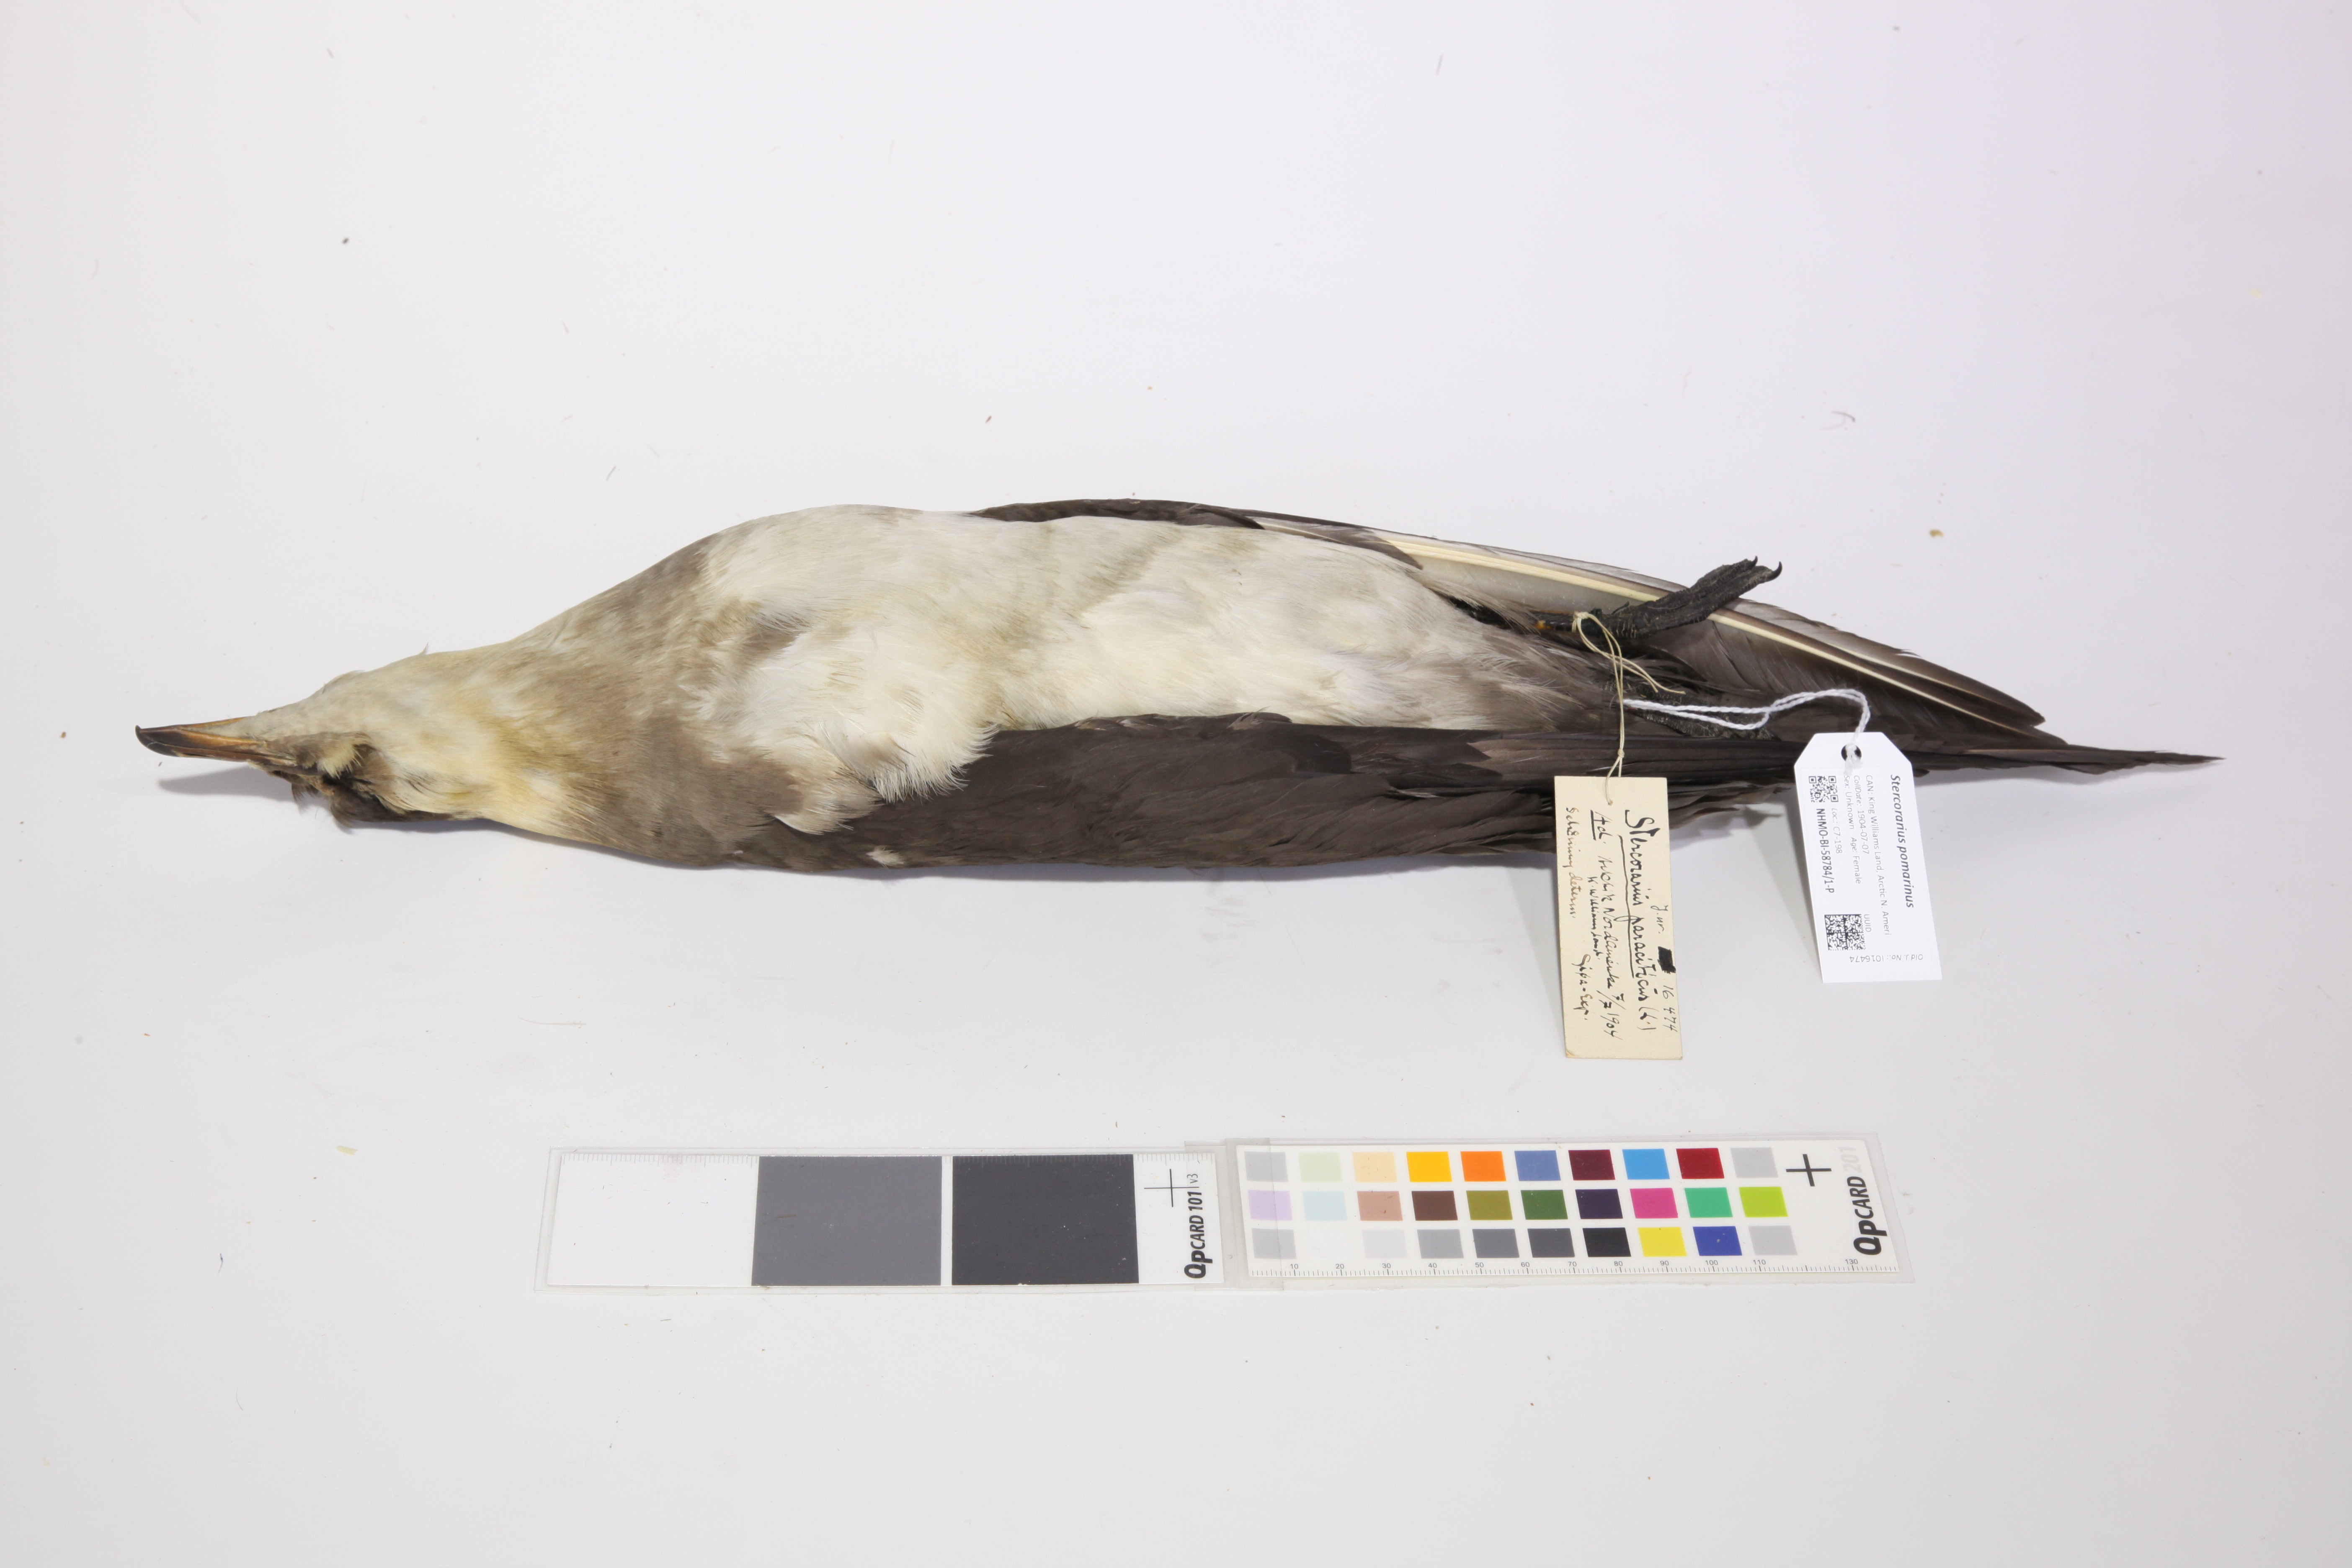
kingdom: Animalia
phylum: Chordata
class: Aves
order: Charadriiformes
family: Stercorariidae
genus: Stercorarius
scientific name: Stercorarius parasiticus
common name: Parasitic jaeger
